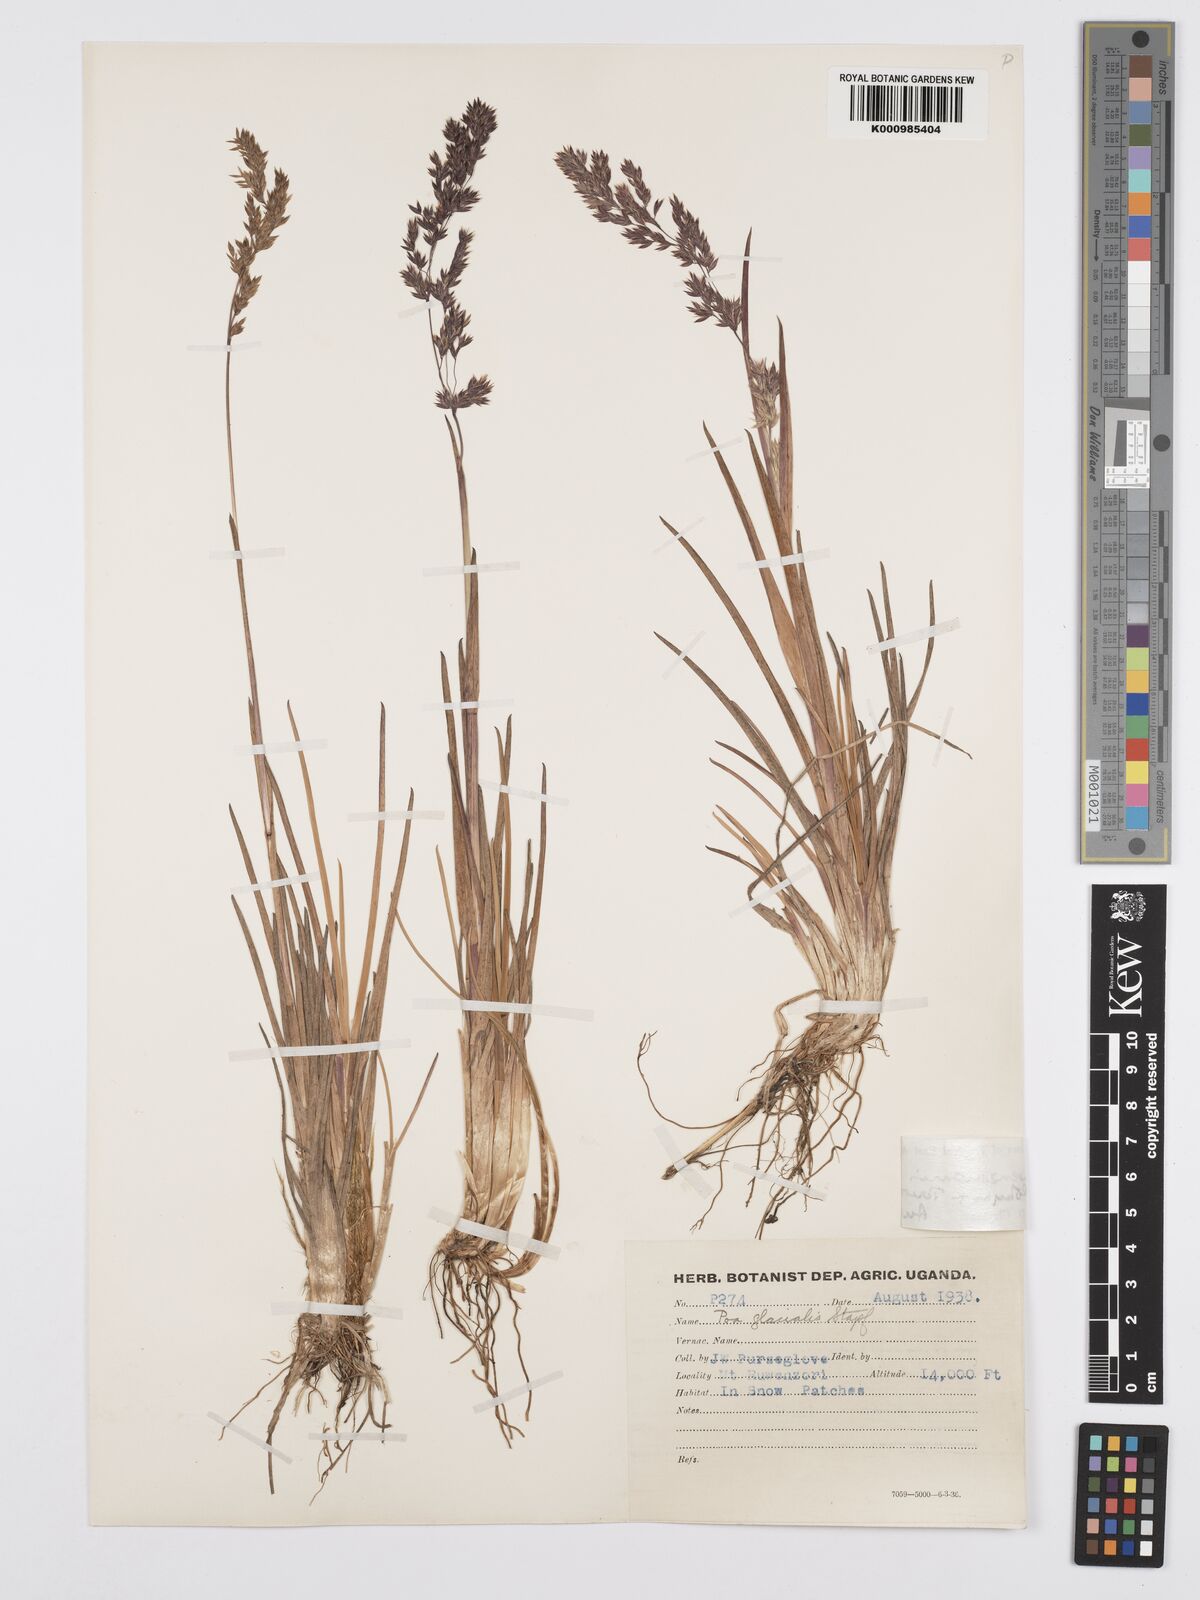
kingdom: Plantae
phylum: Tracheophyta
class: Liliopsida
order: Poales
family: Poaceae
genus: Poa
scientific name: Poa ruwenzoriensis
